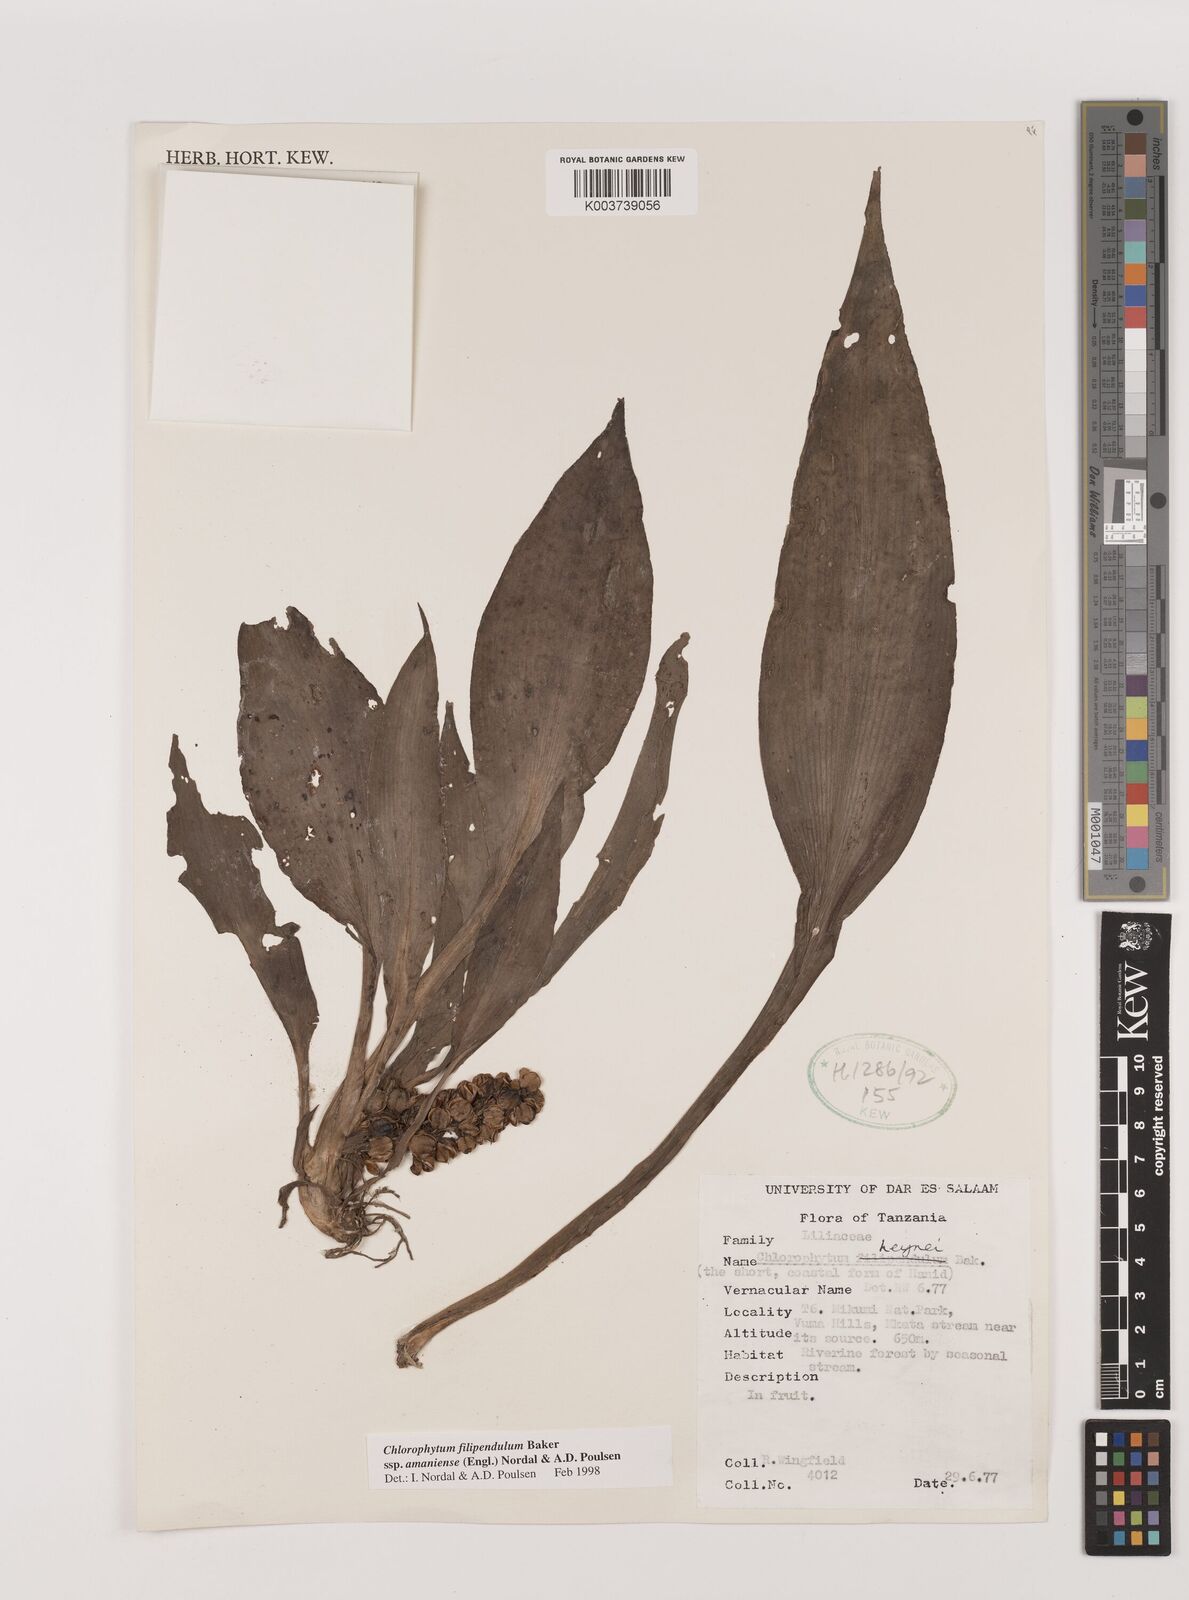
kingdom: Plantae
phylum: Tracheophyta
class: Liliopsida
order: Asparagales
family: Asparagaceae
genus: Chlorophytum
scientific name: Chlorophytum filipendulum
